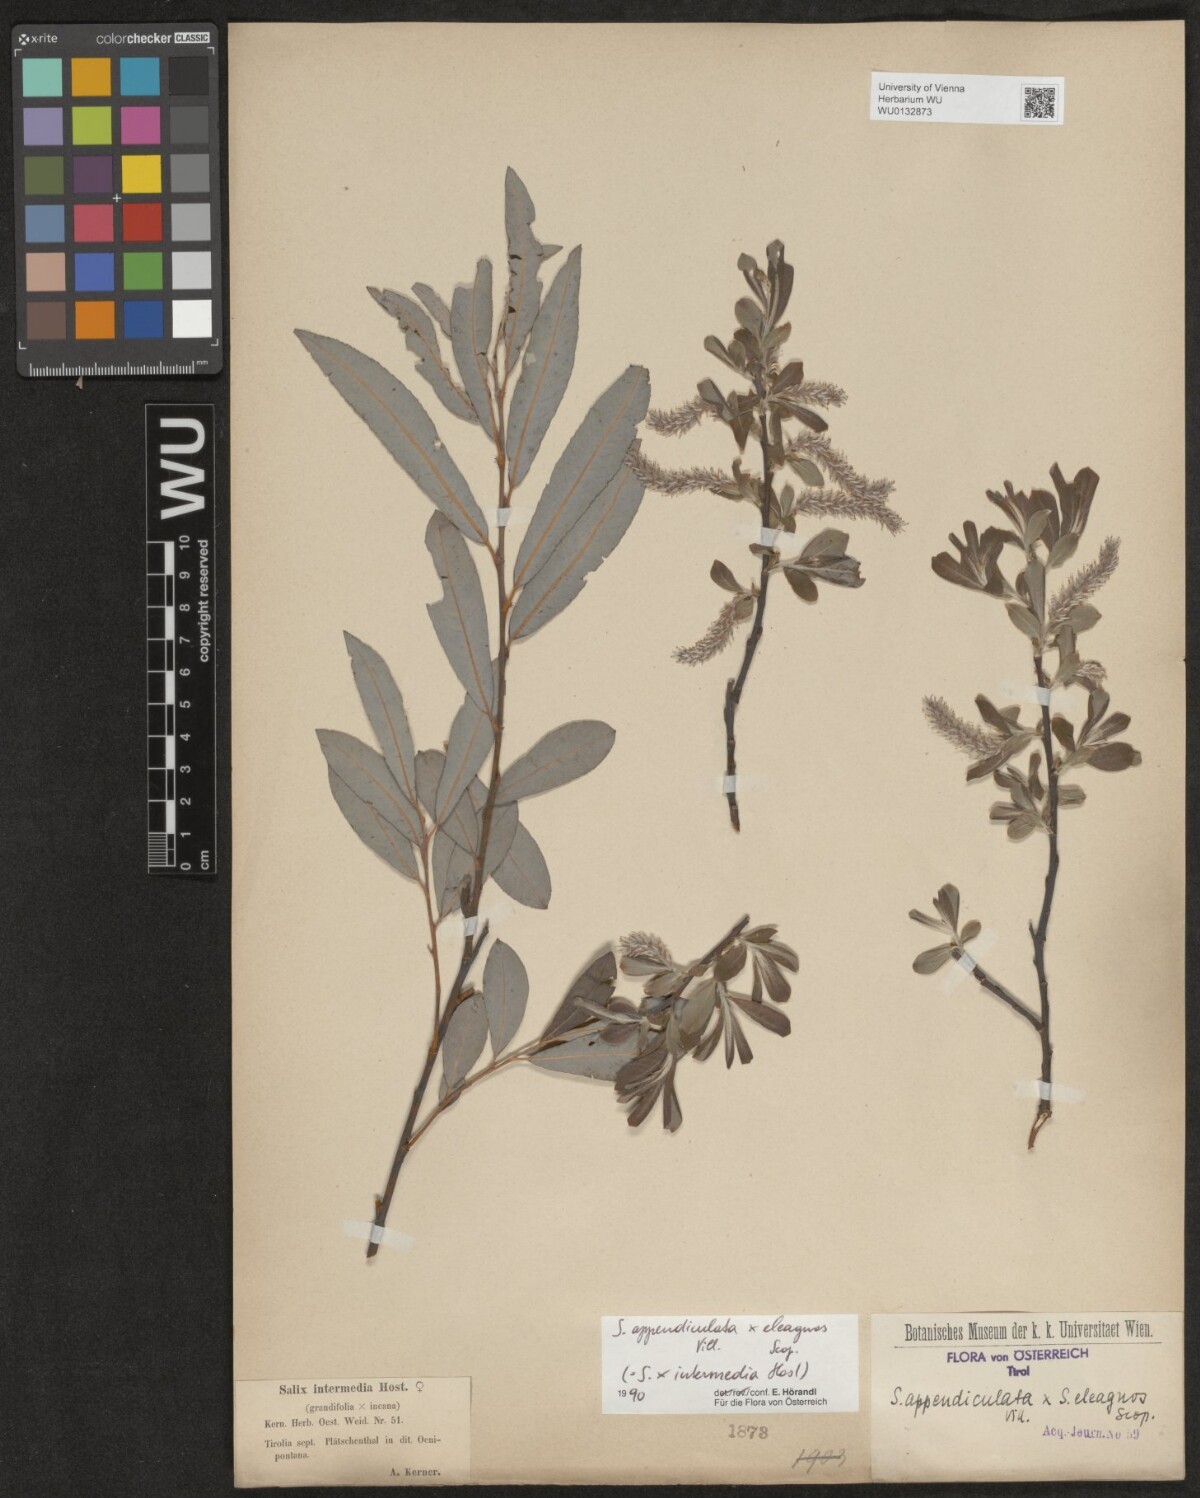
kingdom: Plantae
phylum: Tracheophyta
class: Magnoliopsida
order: Malpighiales
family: Salicaceae
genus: Salix
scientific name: Salix intermedia
